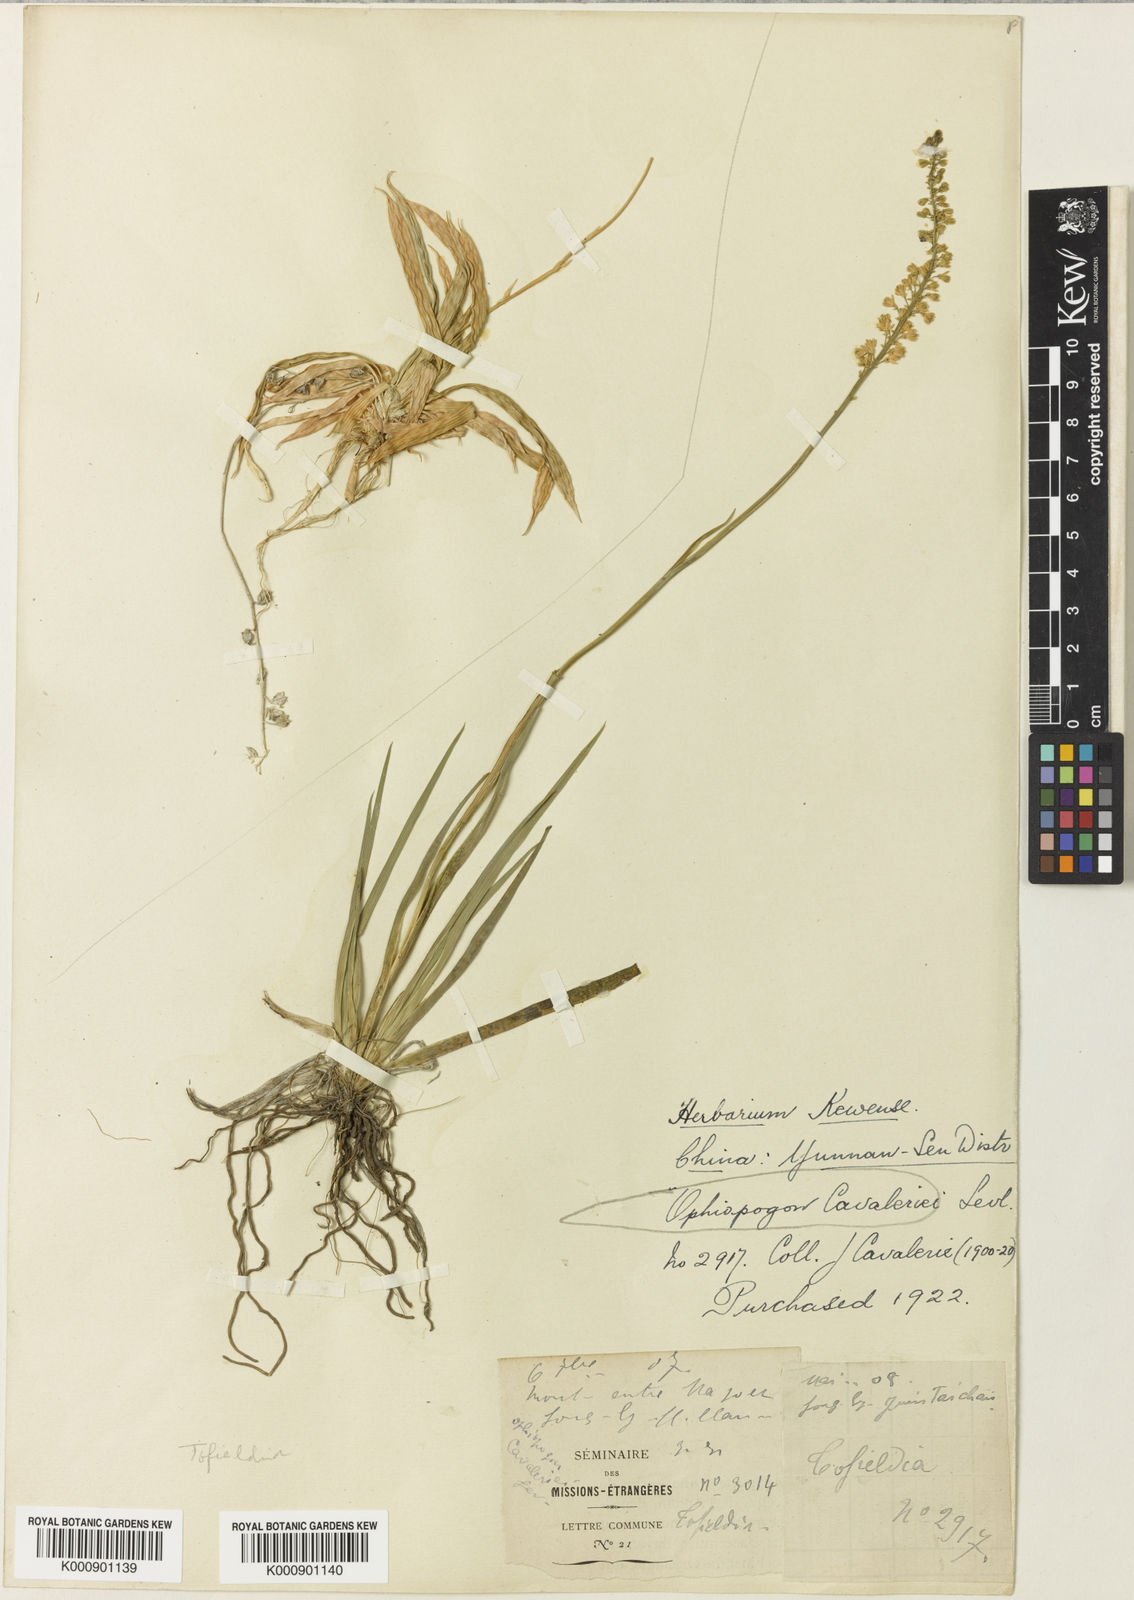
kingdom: Plantae
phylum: Tracheophyta
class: Liliopsida
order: Alismatales
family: Tofieldiaceae
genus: Tofieldia
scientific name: Tofieldia divergens
